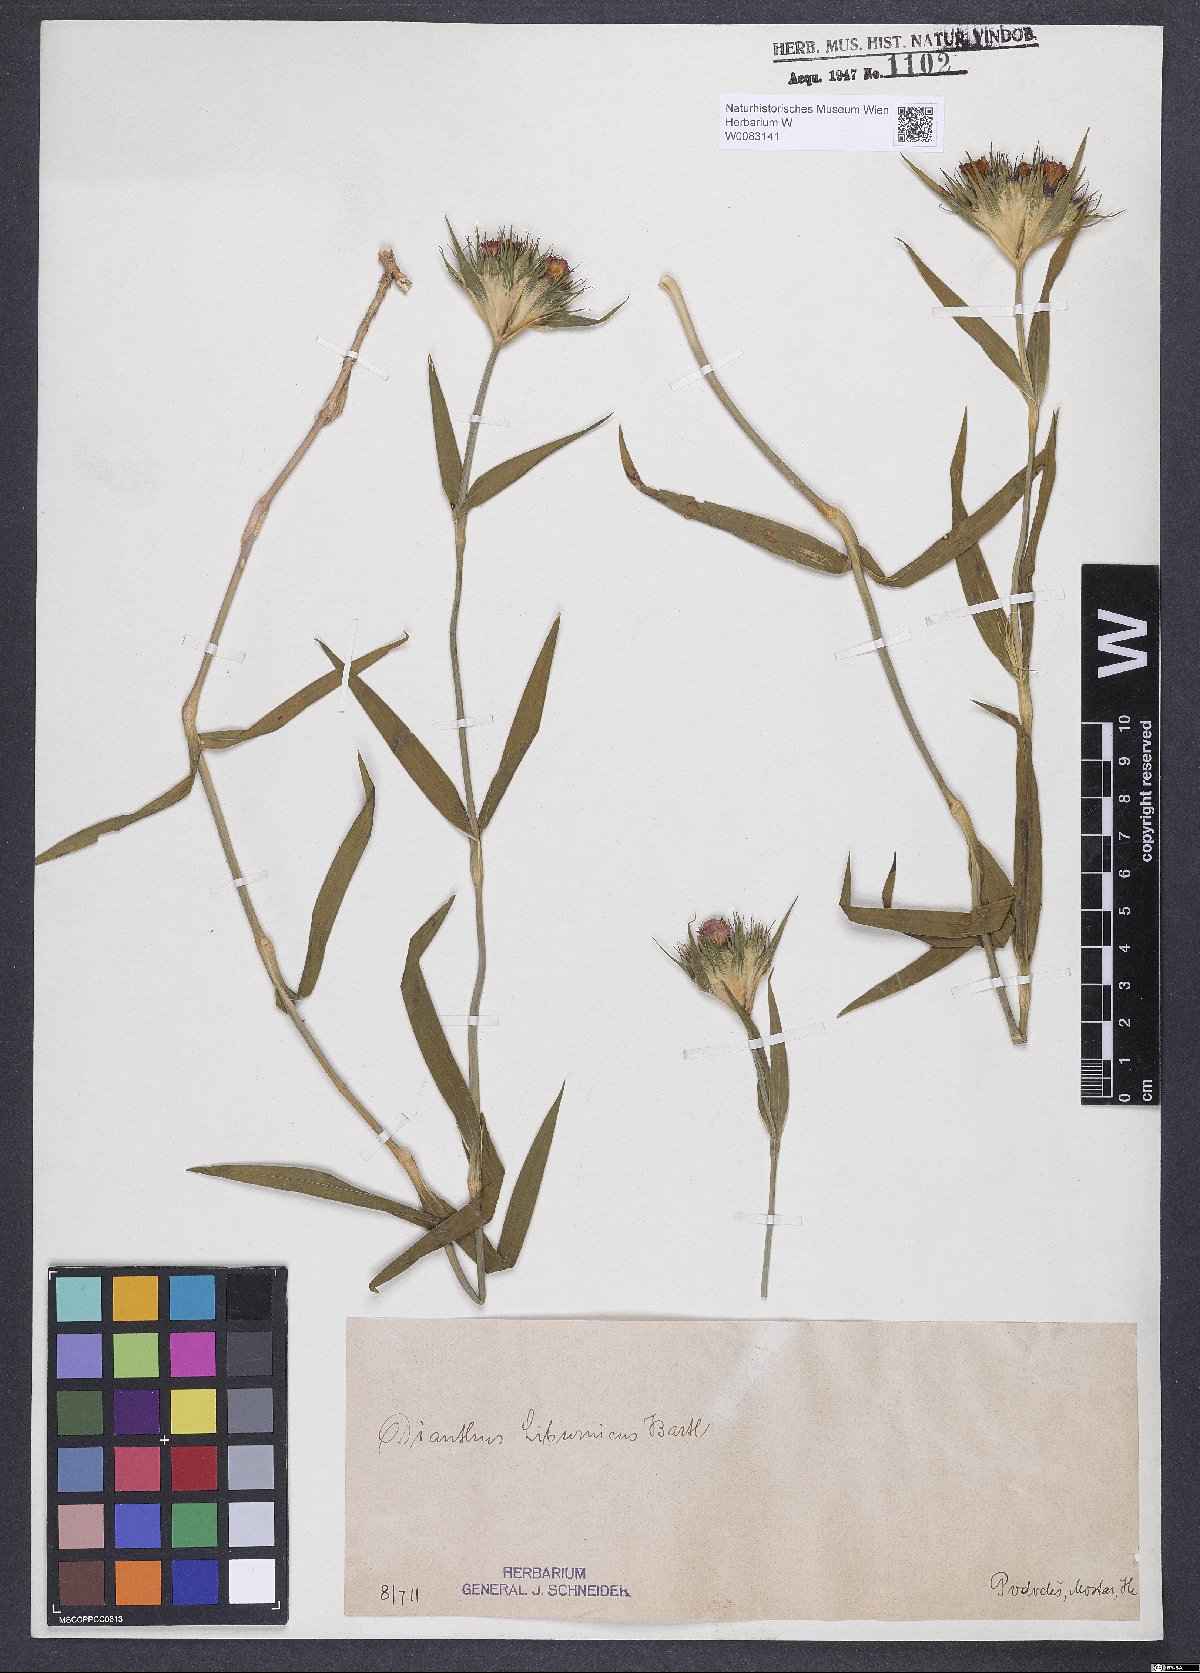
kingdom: Plantae
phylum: Tracheophyta
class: Magnoliopsida
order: Caryophyllales
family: Caryophyllaceae
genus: Dianthus
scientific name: Dianthus balbisii
